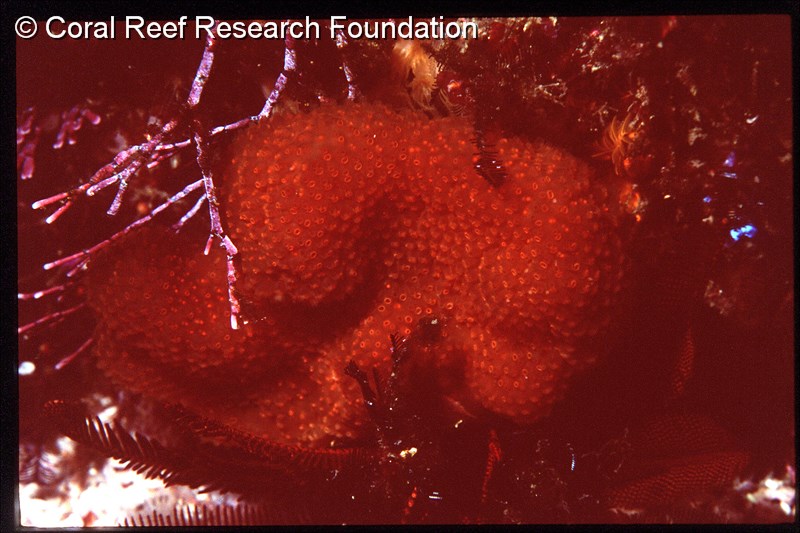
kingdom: Animalia
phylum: Chordata
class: Ascidiacea
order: Aplousobranchia
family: Pseudodistomidae
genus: Pseudodistoma
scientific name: Pseudodistoma
